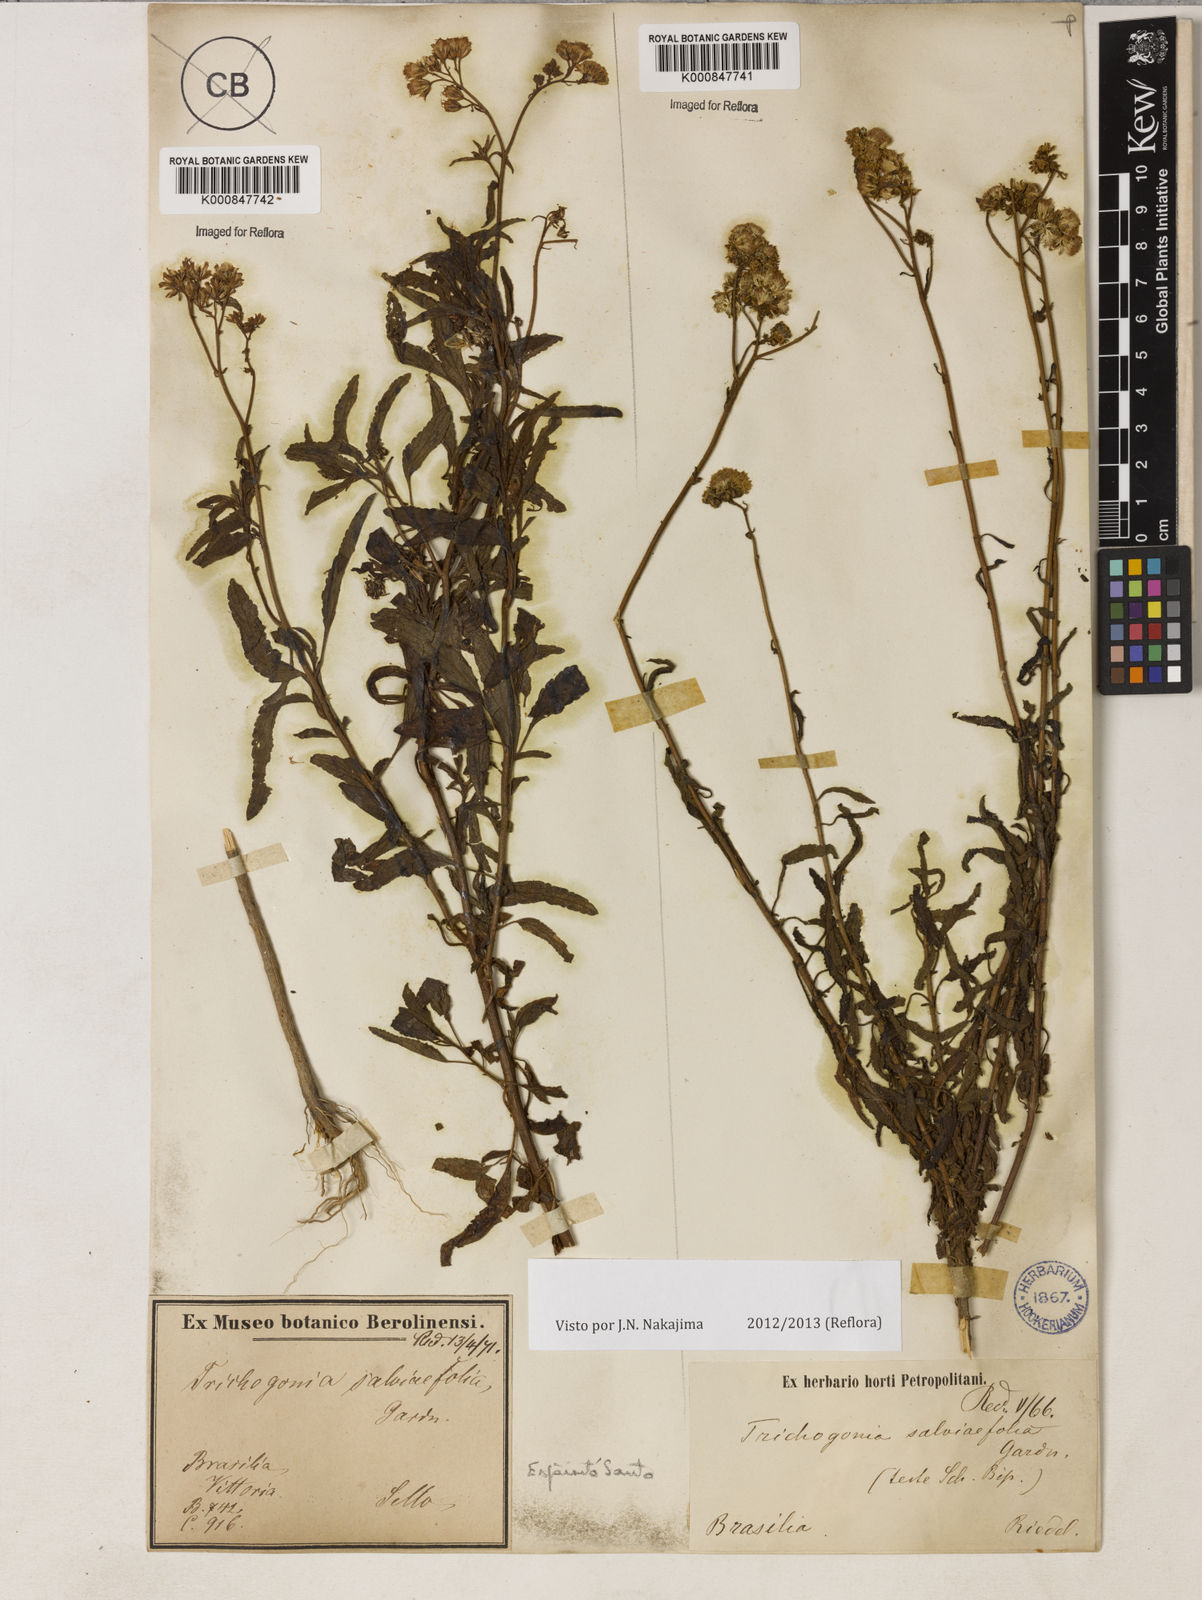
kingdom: Plantae
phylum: Tracheophyta
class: Magnoliopsida
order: Asterales
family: Asteraceae
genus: Trichogonia
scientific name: Trichogonia salviifolia
